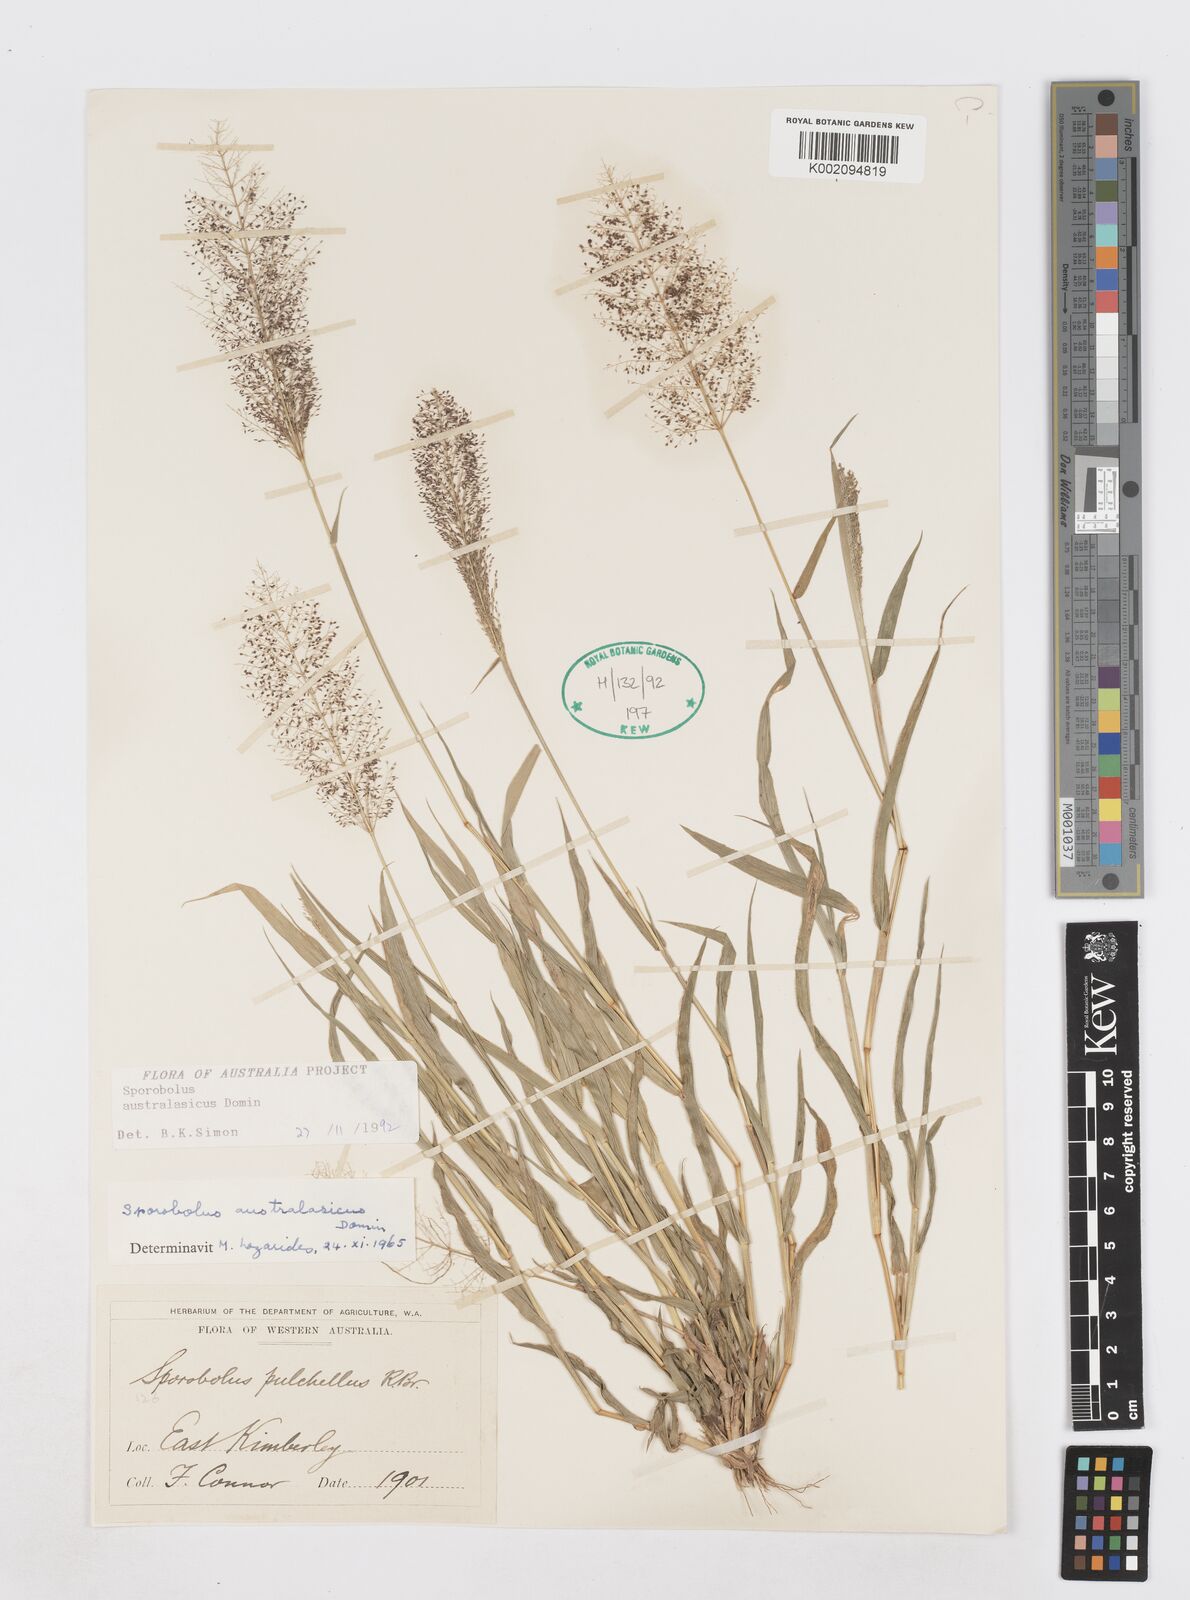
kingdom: Plantae
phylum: Tracheophyta
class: Liliopsida
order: Poales
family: Poaceae
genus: Sporobolus
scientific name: Sporobolus australasicus
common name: Australian dropseed
